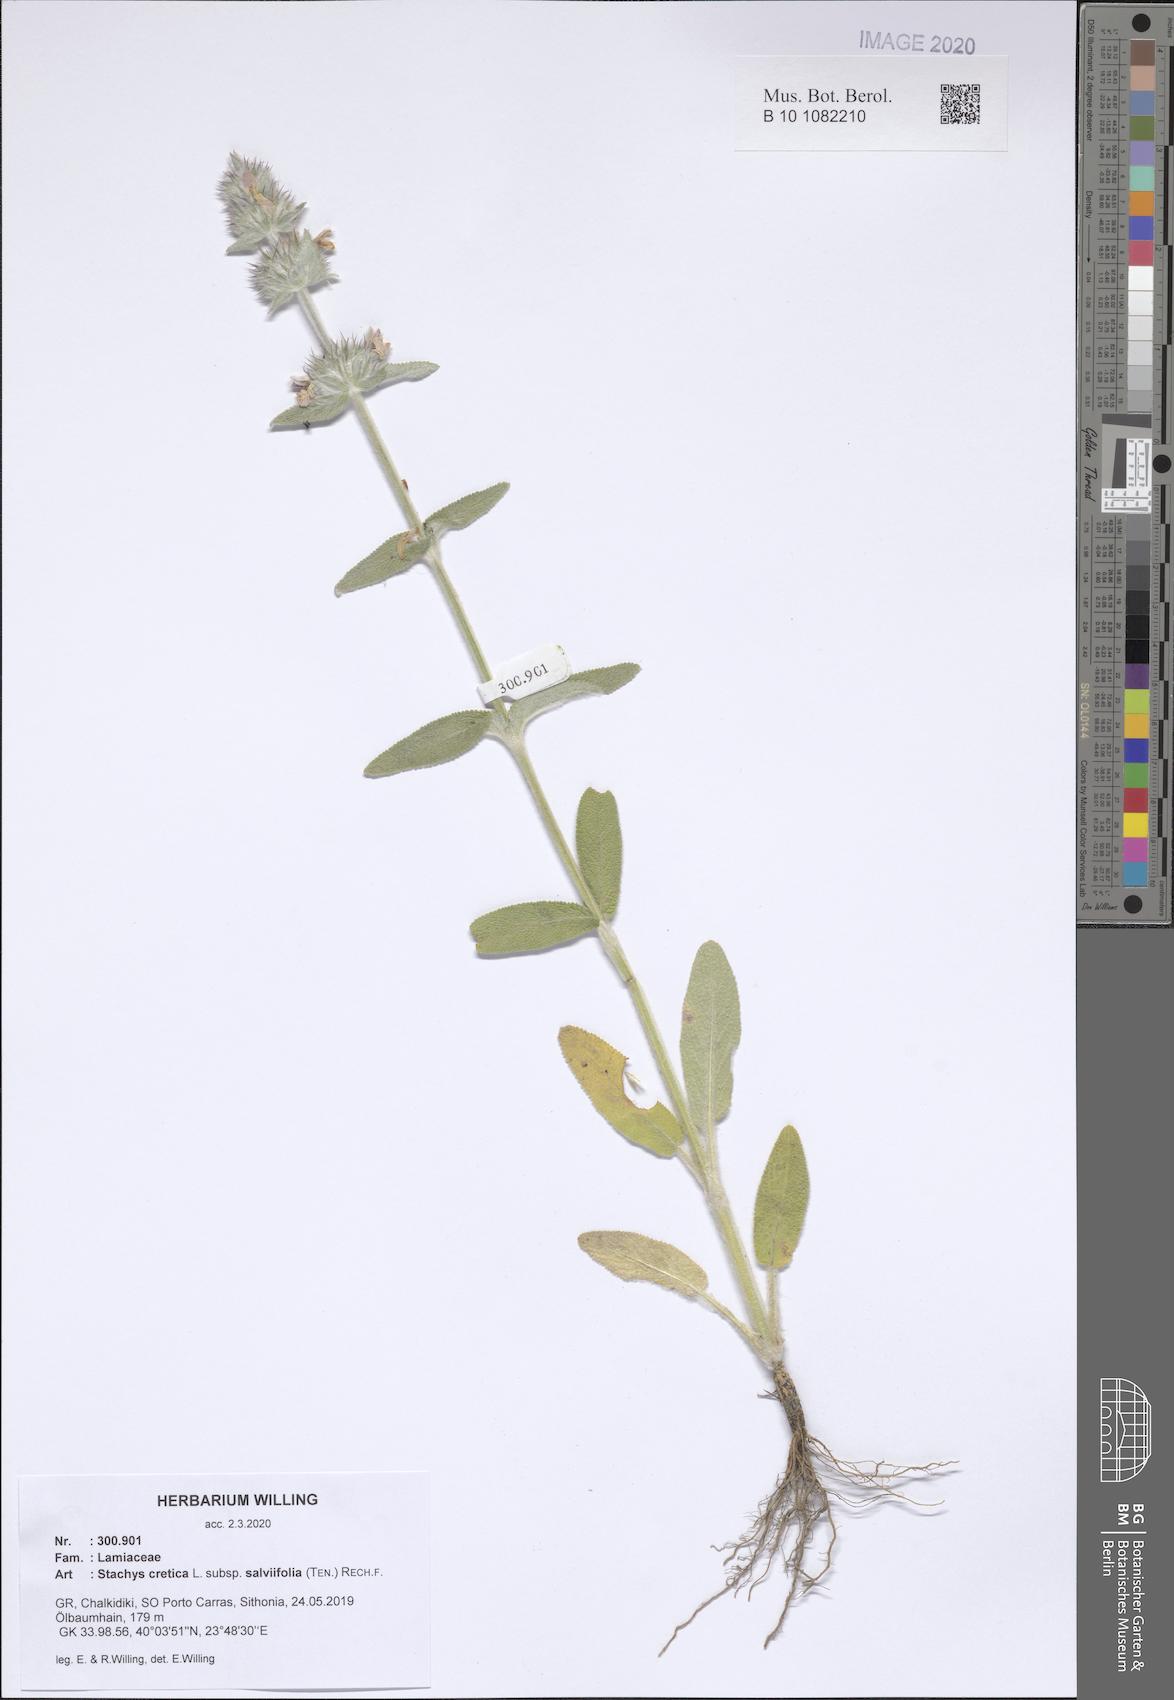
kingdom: Plantae
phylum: Tracheophyta
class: Magnoliopsida
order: Lamiales
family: Lamiaceae
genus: Stachys
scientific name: Stachys cretica
